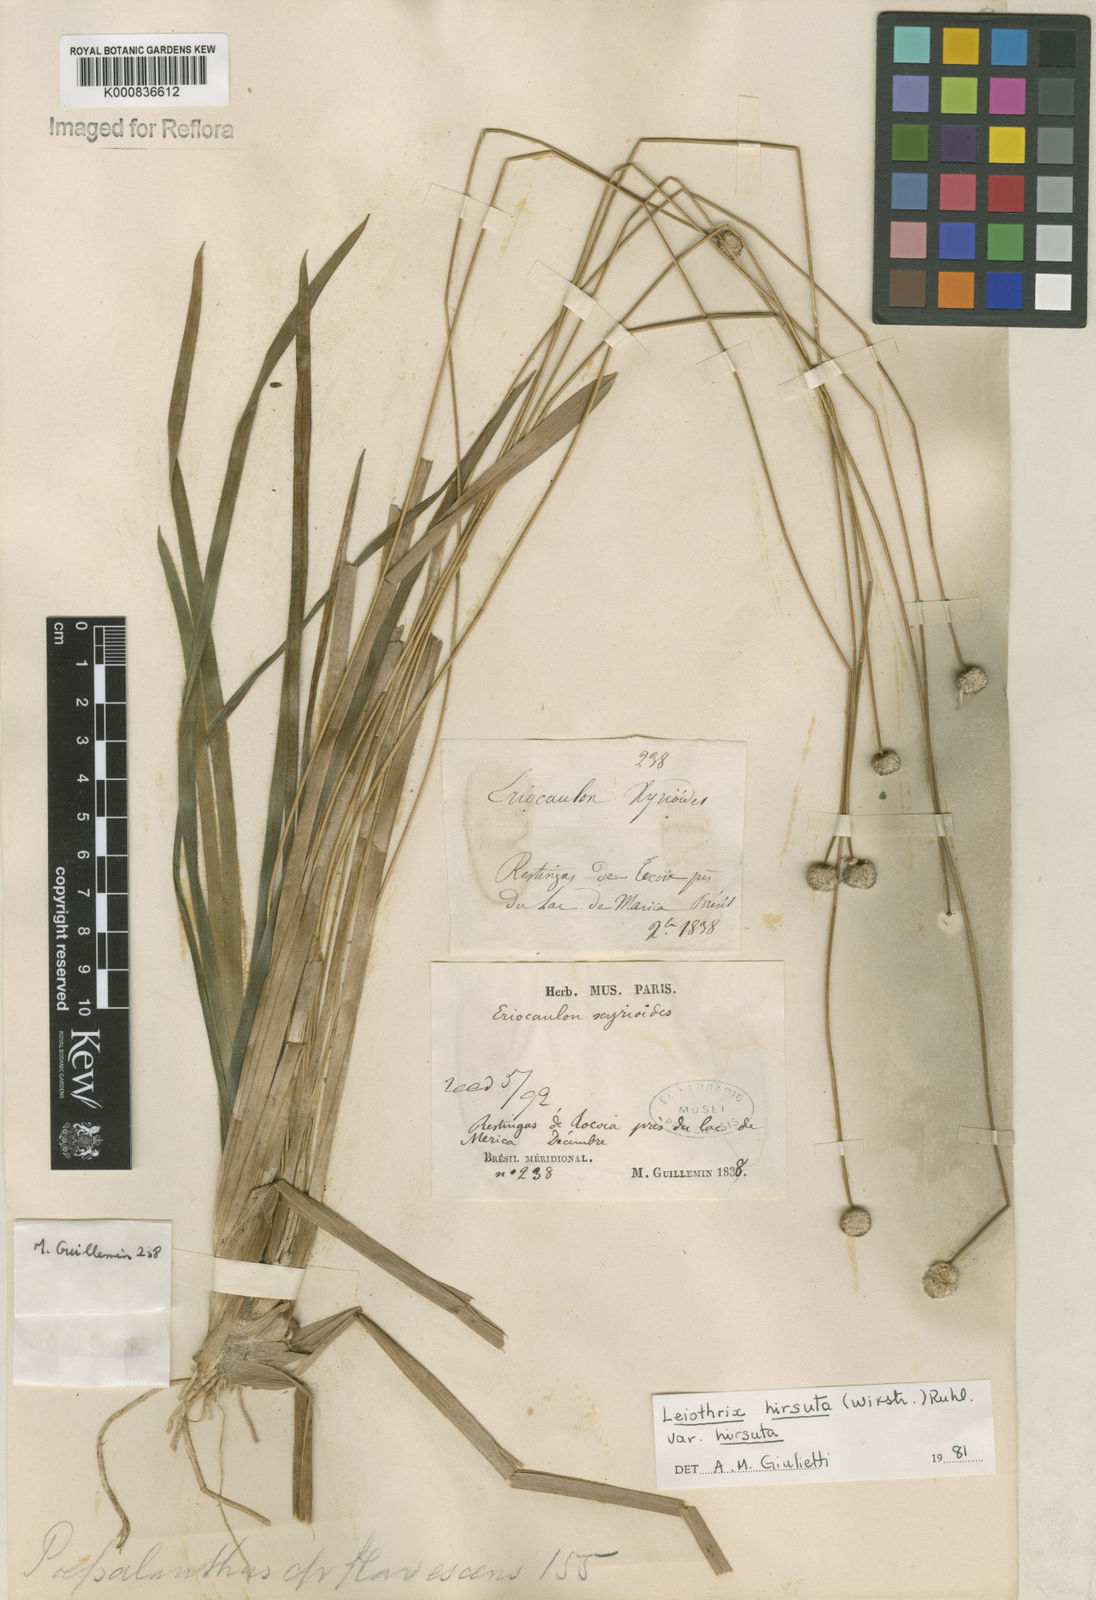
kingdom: Plantae
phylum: Tracheophyta
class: Liliopsida
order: Poales
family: Eriocaulaceae
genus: Leiothrix
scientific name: Leiothrix hirsuta
